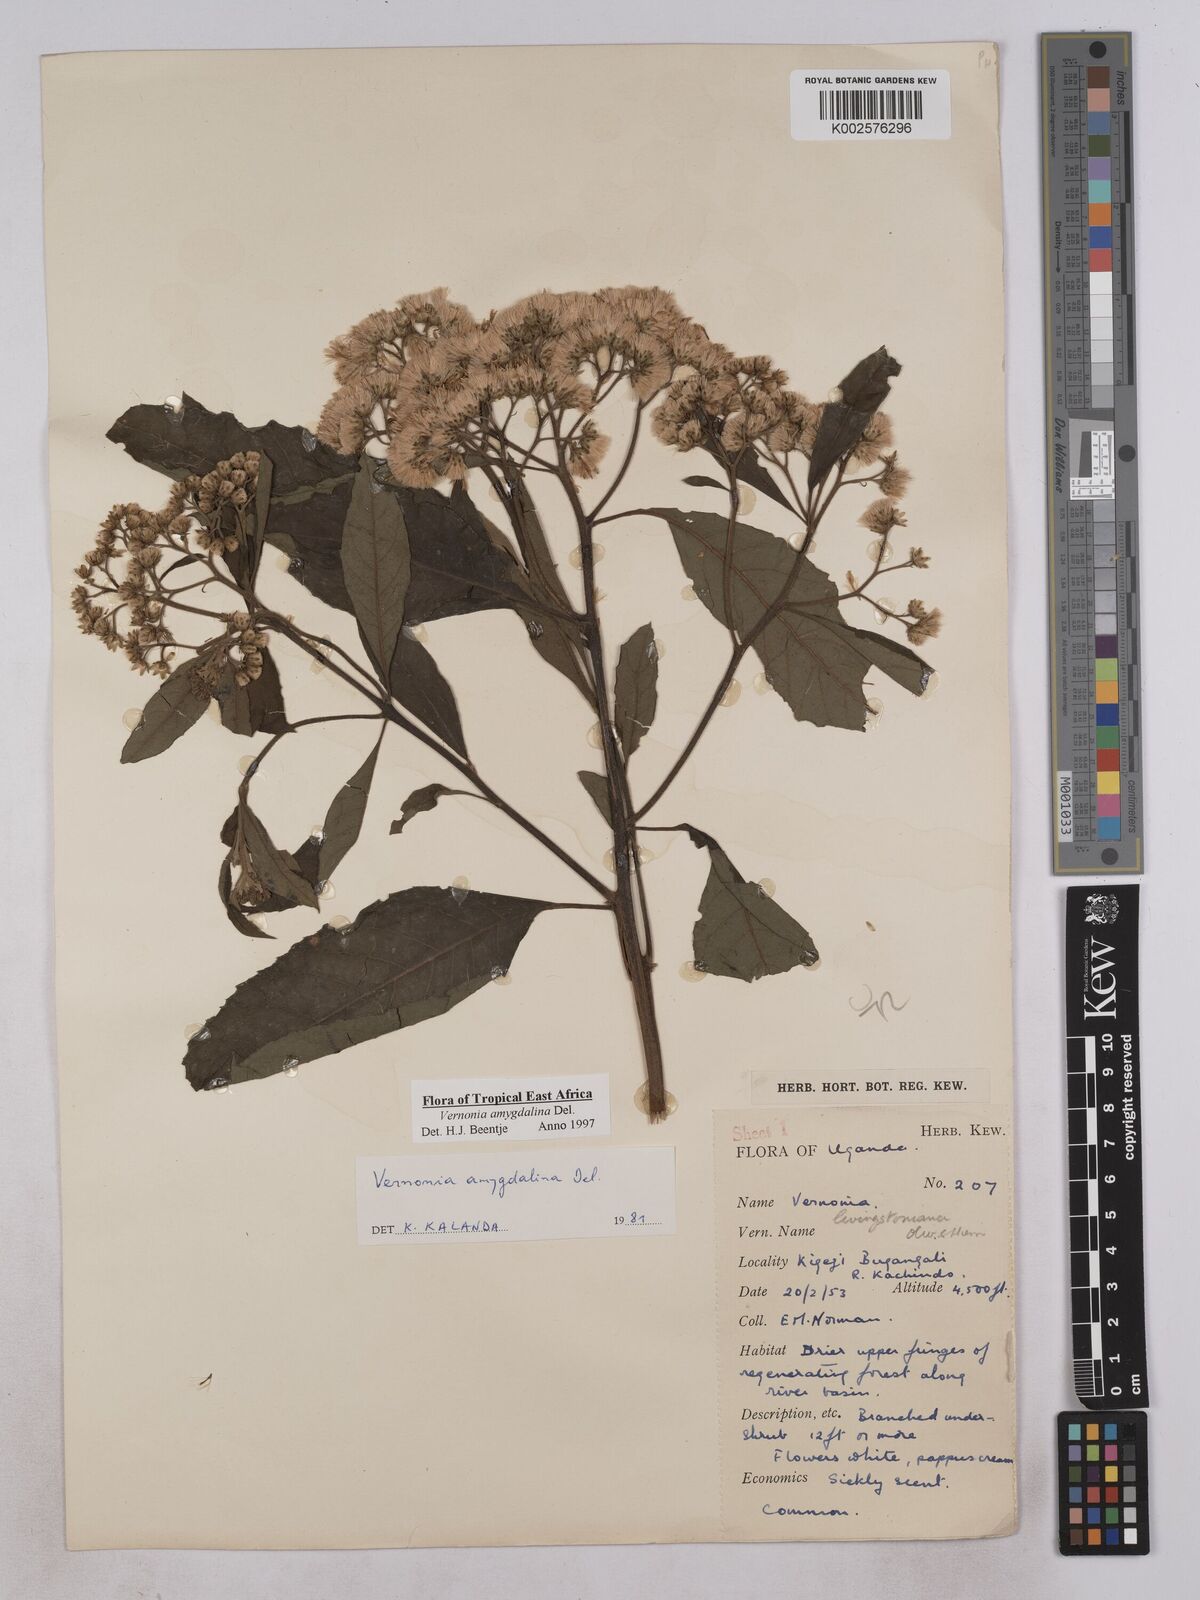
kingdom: Plantae
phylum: Tracheophyta
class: Magnoliopsida
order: Asterales
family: Asteraceae
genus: Gymnanthemum
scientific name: Gymnanthemum amygdalinum
